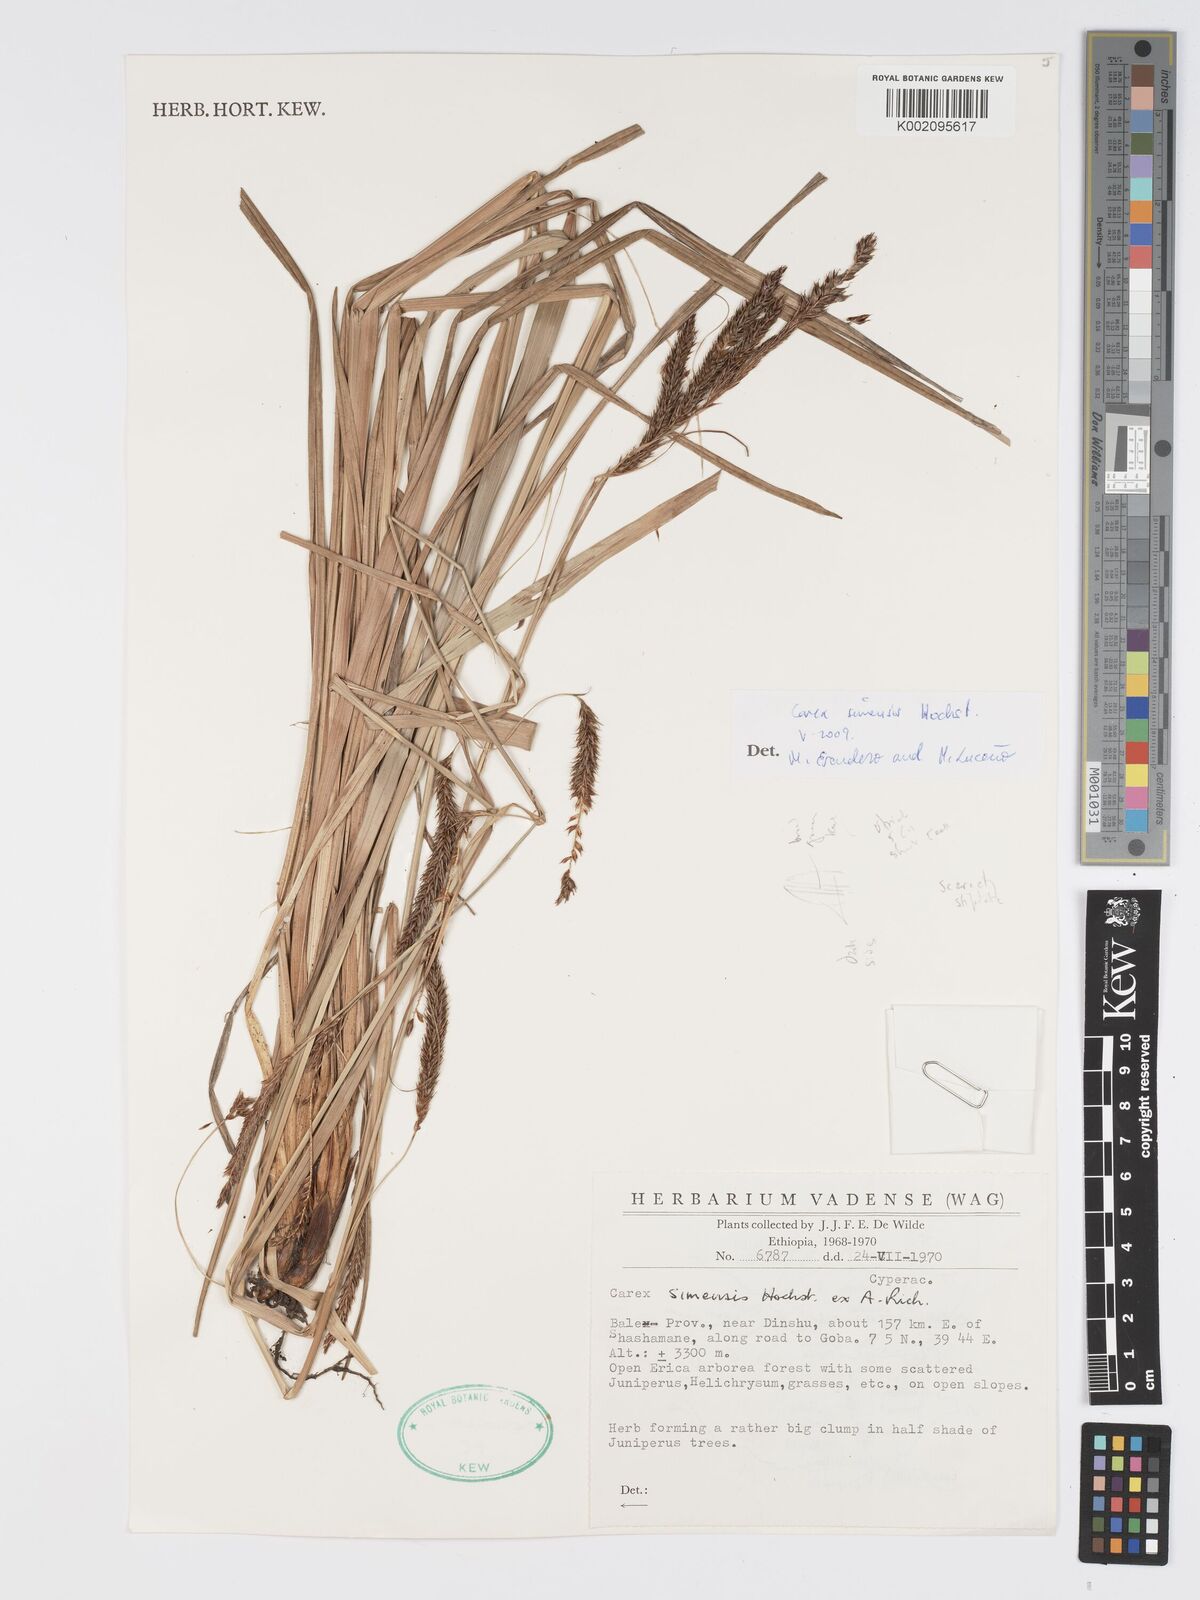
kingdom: Plantae
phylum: Tracheophyta
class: Liliopsida
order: Poales
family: Cyperaceae
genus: Carex
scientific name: Carex simensis
